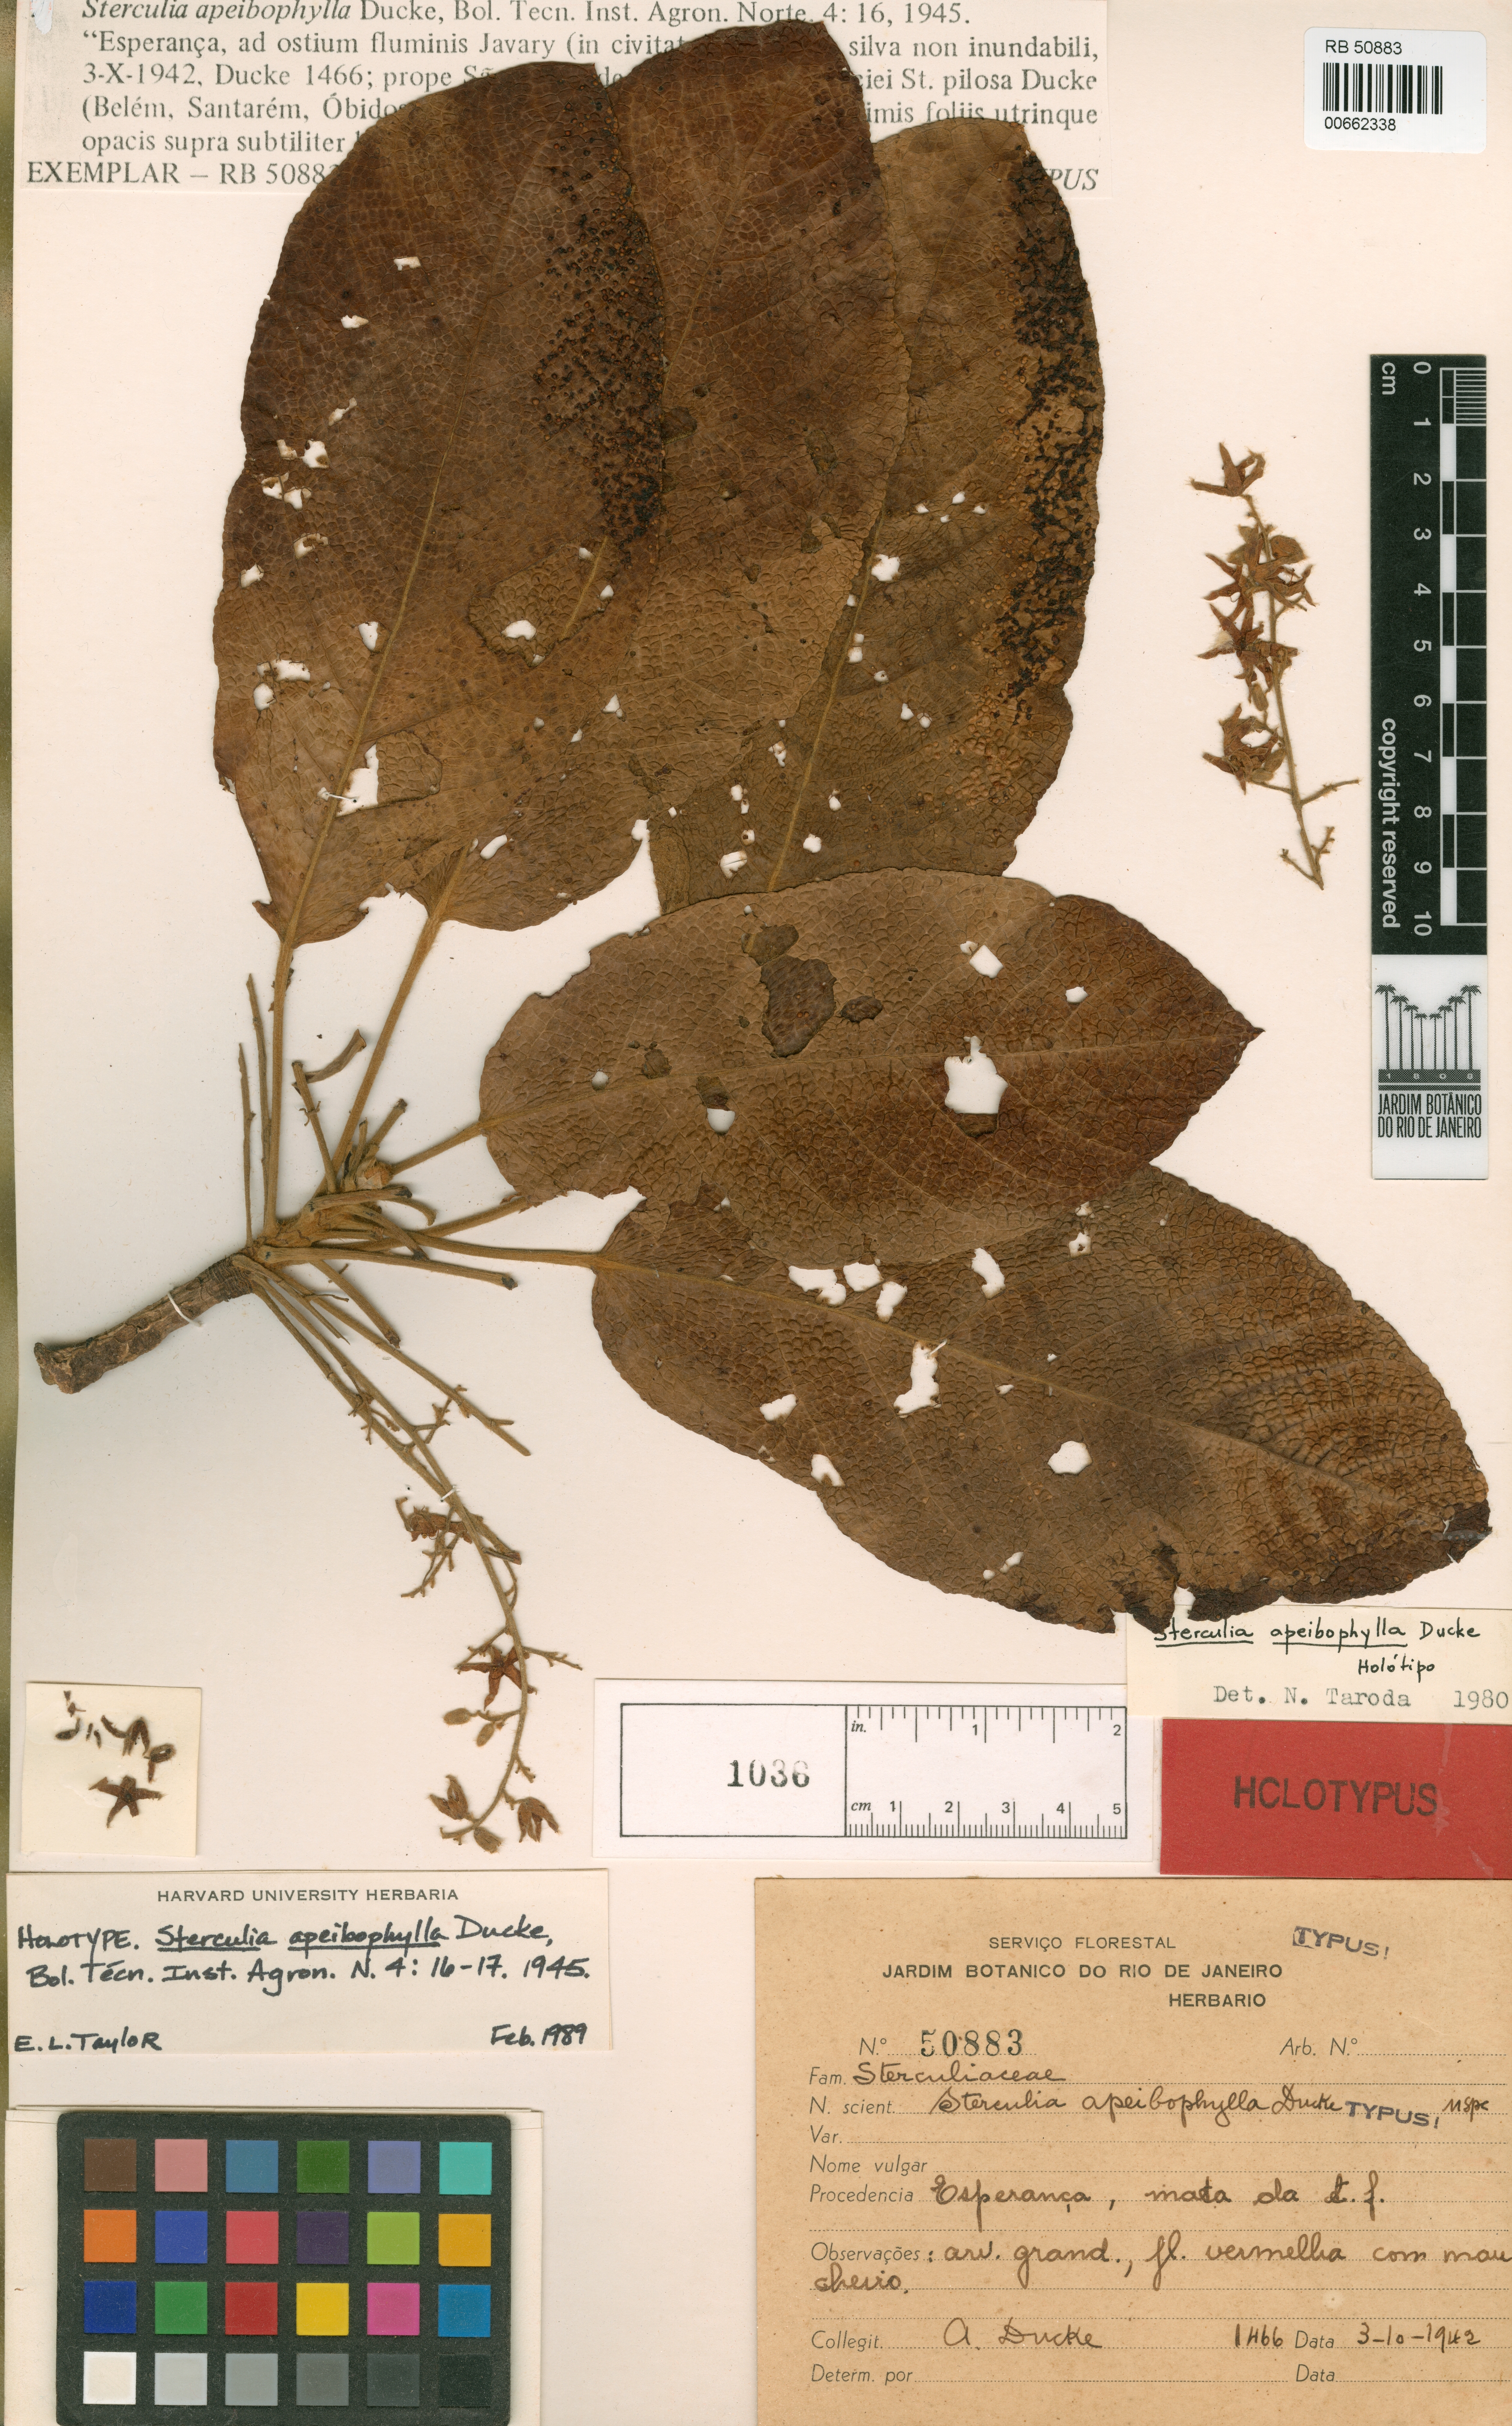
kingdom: Plantae
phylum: Tracheophyta
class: Magnoliopsida
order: Malvales
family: Malvaceae
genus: Sterculia
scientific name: Sterculia apeibophylla
